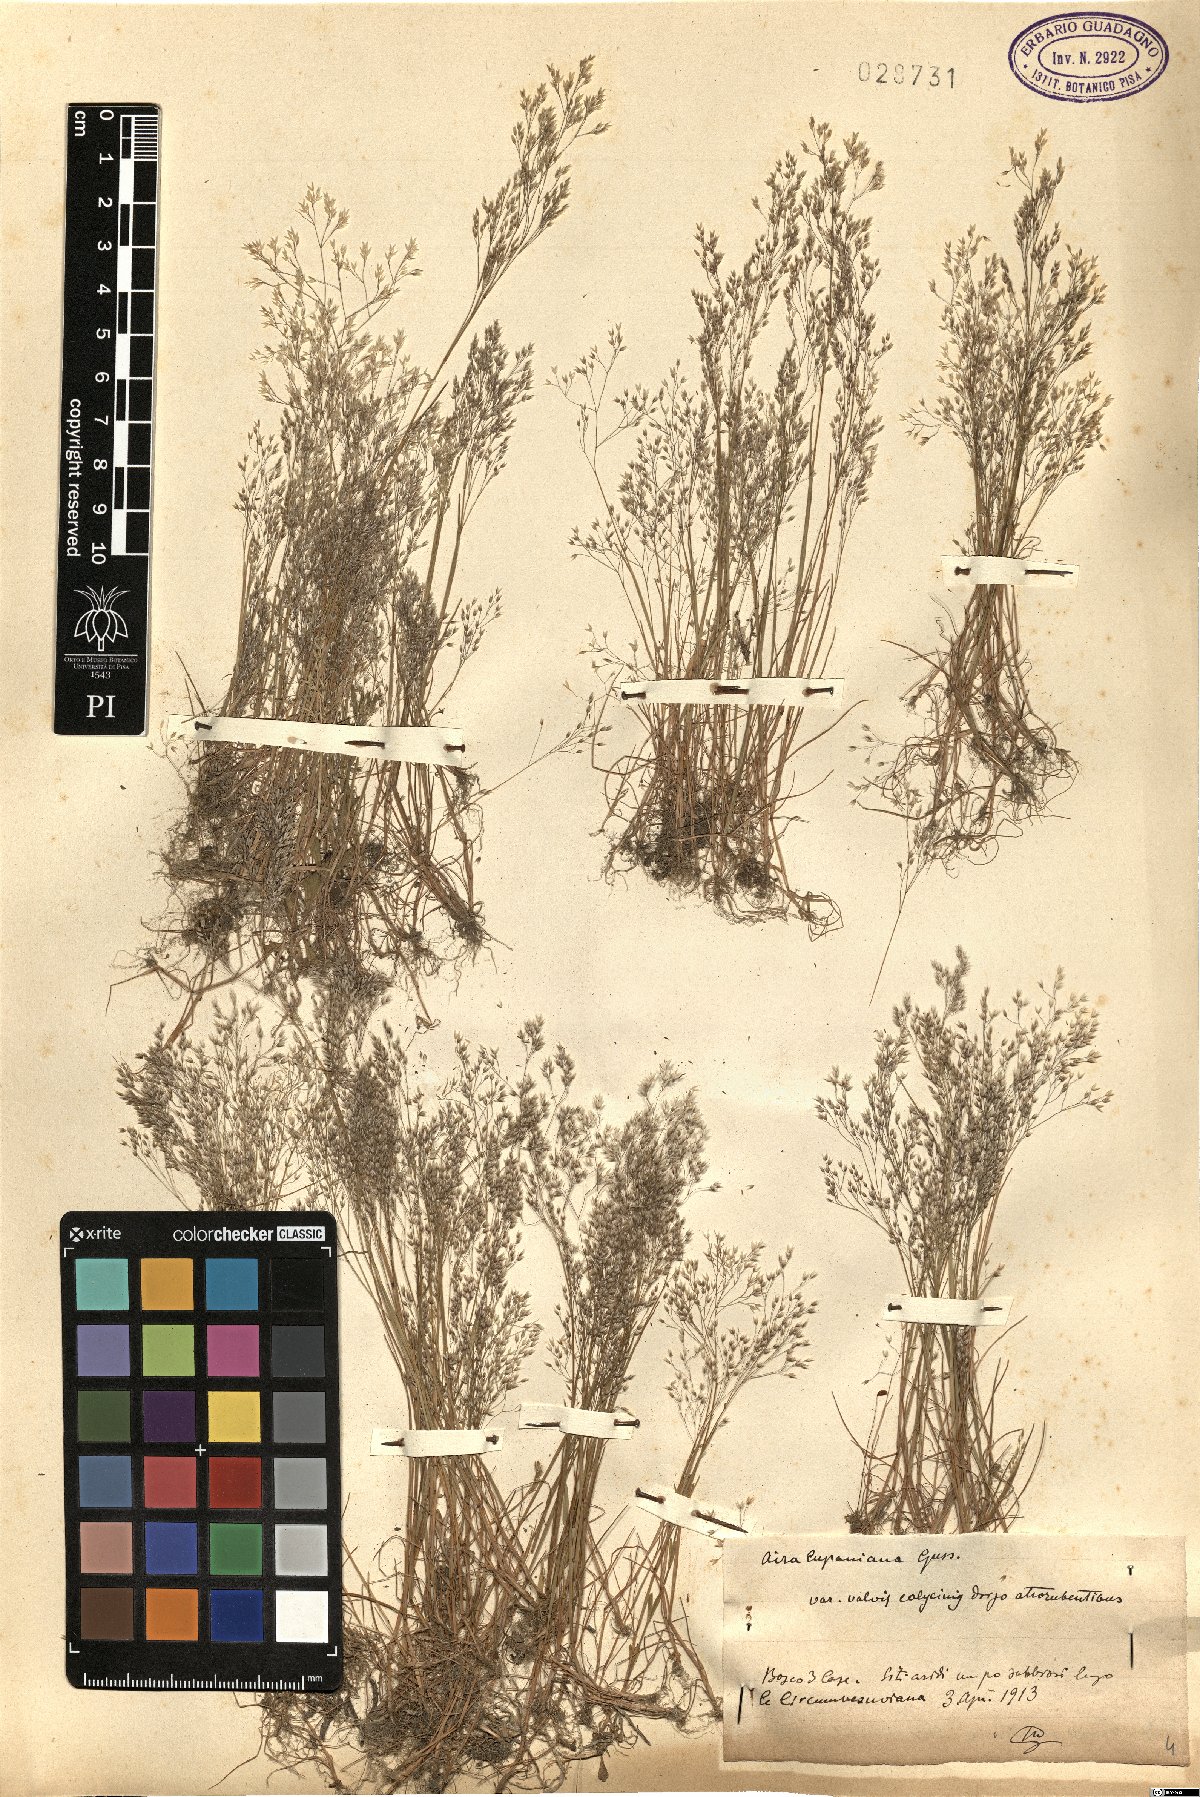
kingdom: Plantae
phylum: Tracheophyta
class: Liliopsida
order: Poales
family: Poaceae
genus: Aira
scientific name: Aira cupaniana
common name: Silver hairgrass
